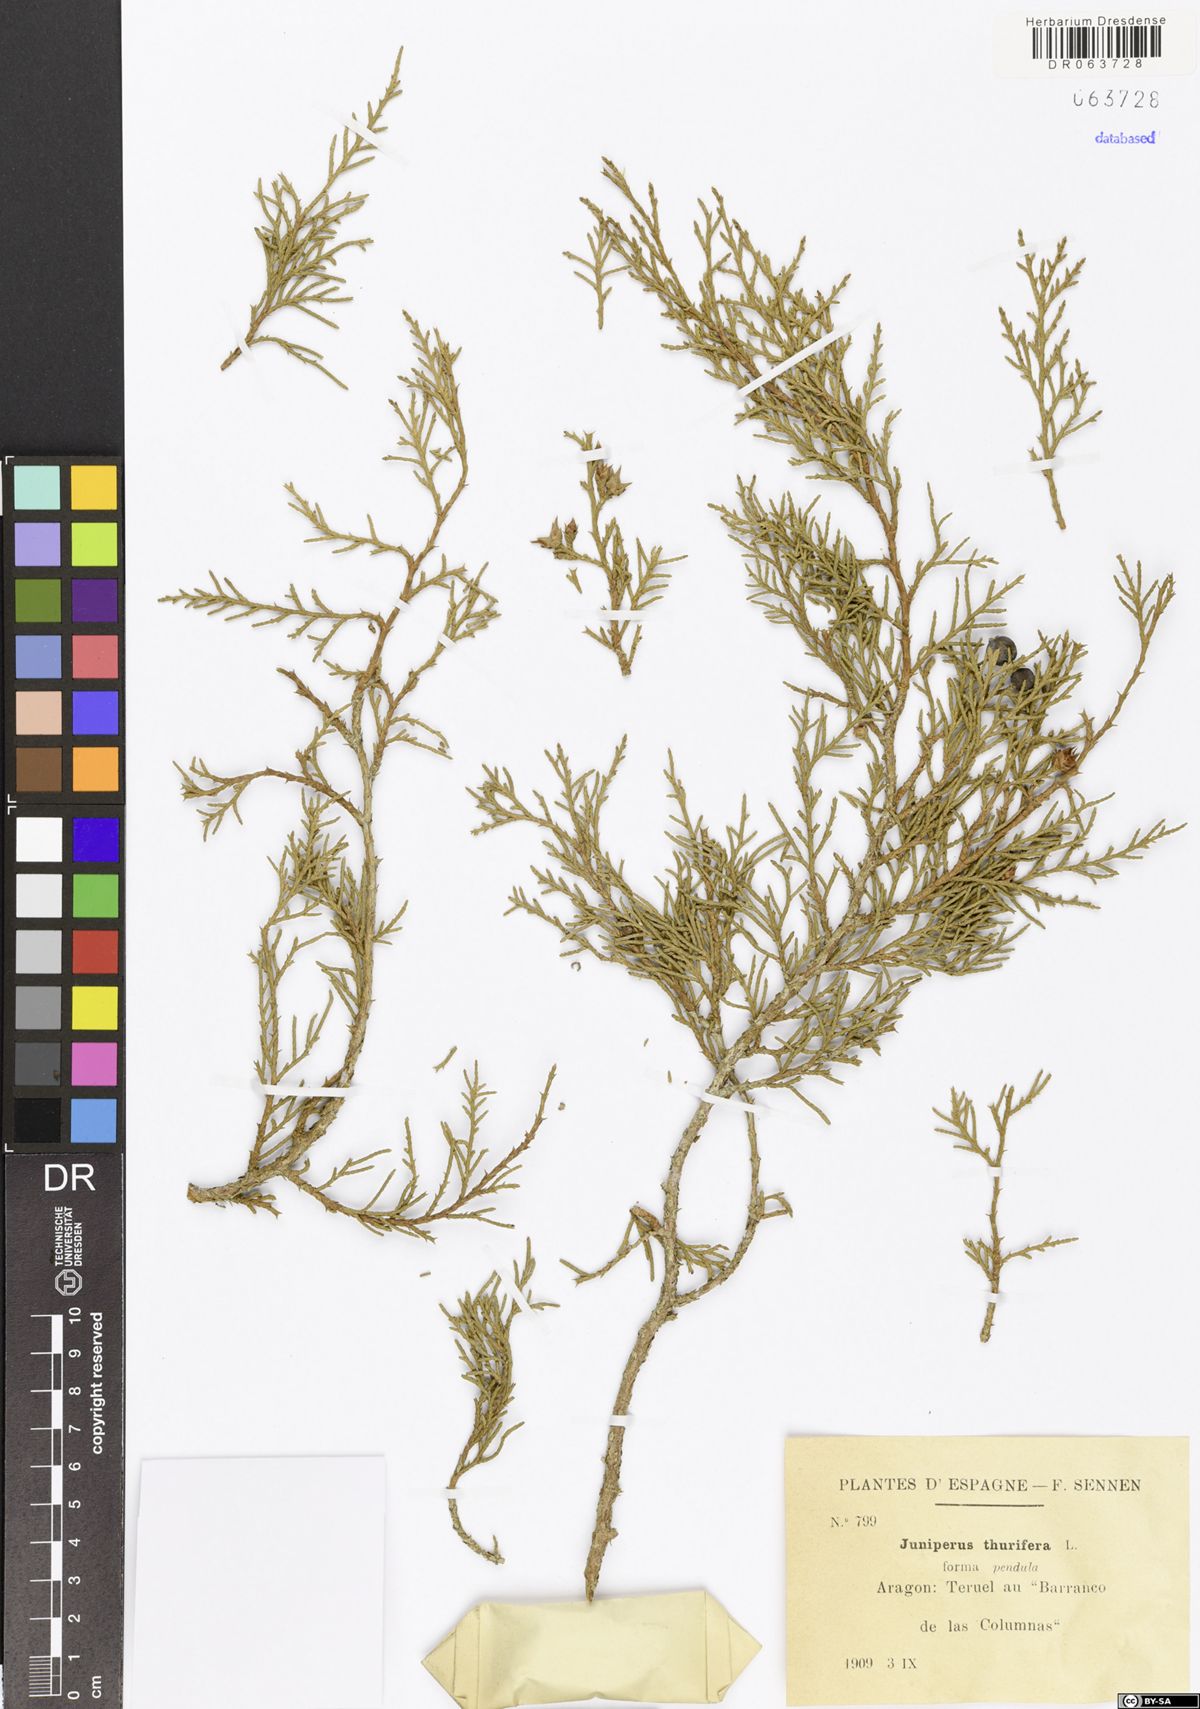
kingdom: Plantae
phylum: Tracheophyta
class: Pinopsida
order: Pinales
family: Cupressaceae
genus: Juniperus
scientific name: Juniperus thurifera
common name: Incense juniper
